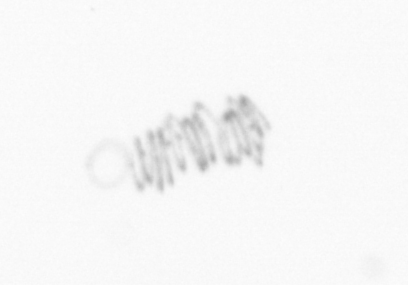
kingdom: Chromista
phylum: Ochrophyta
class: Bacillariophyceae
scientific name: Bacillariophyceae
